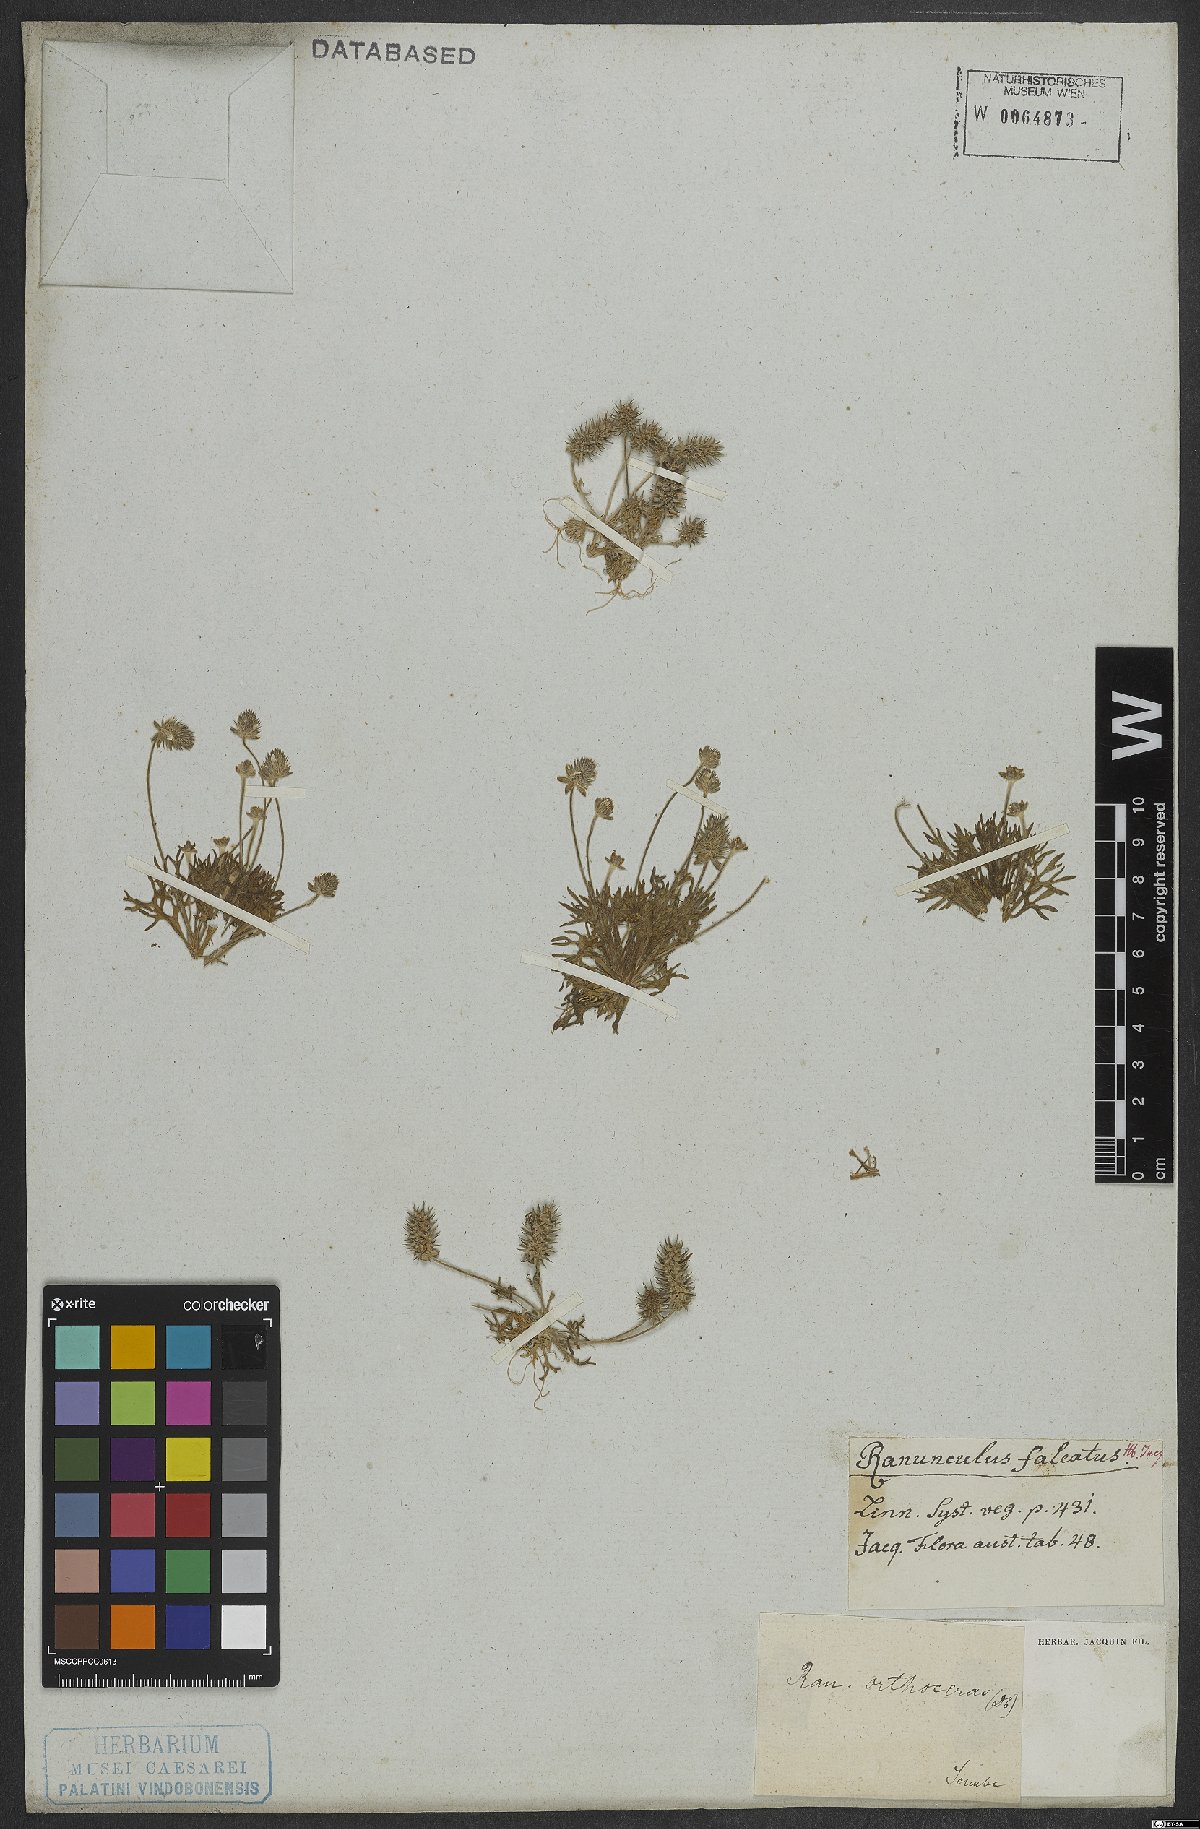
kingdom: Plantae
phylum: Tracheophyta
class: Magnoliopsida
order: Ranunculales
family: Ranunculaceae
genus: Ceratocephala
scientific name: Ceratocephala falcata
